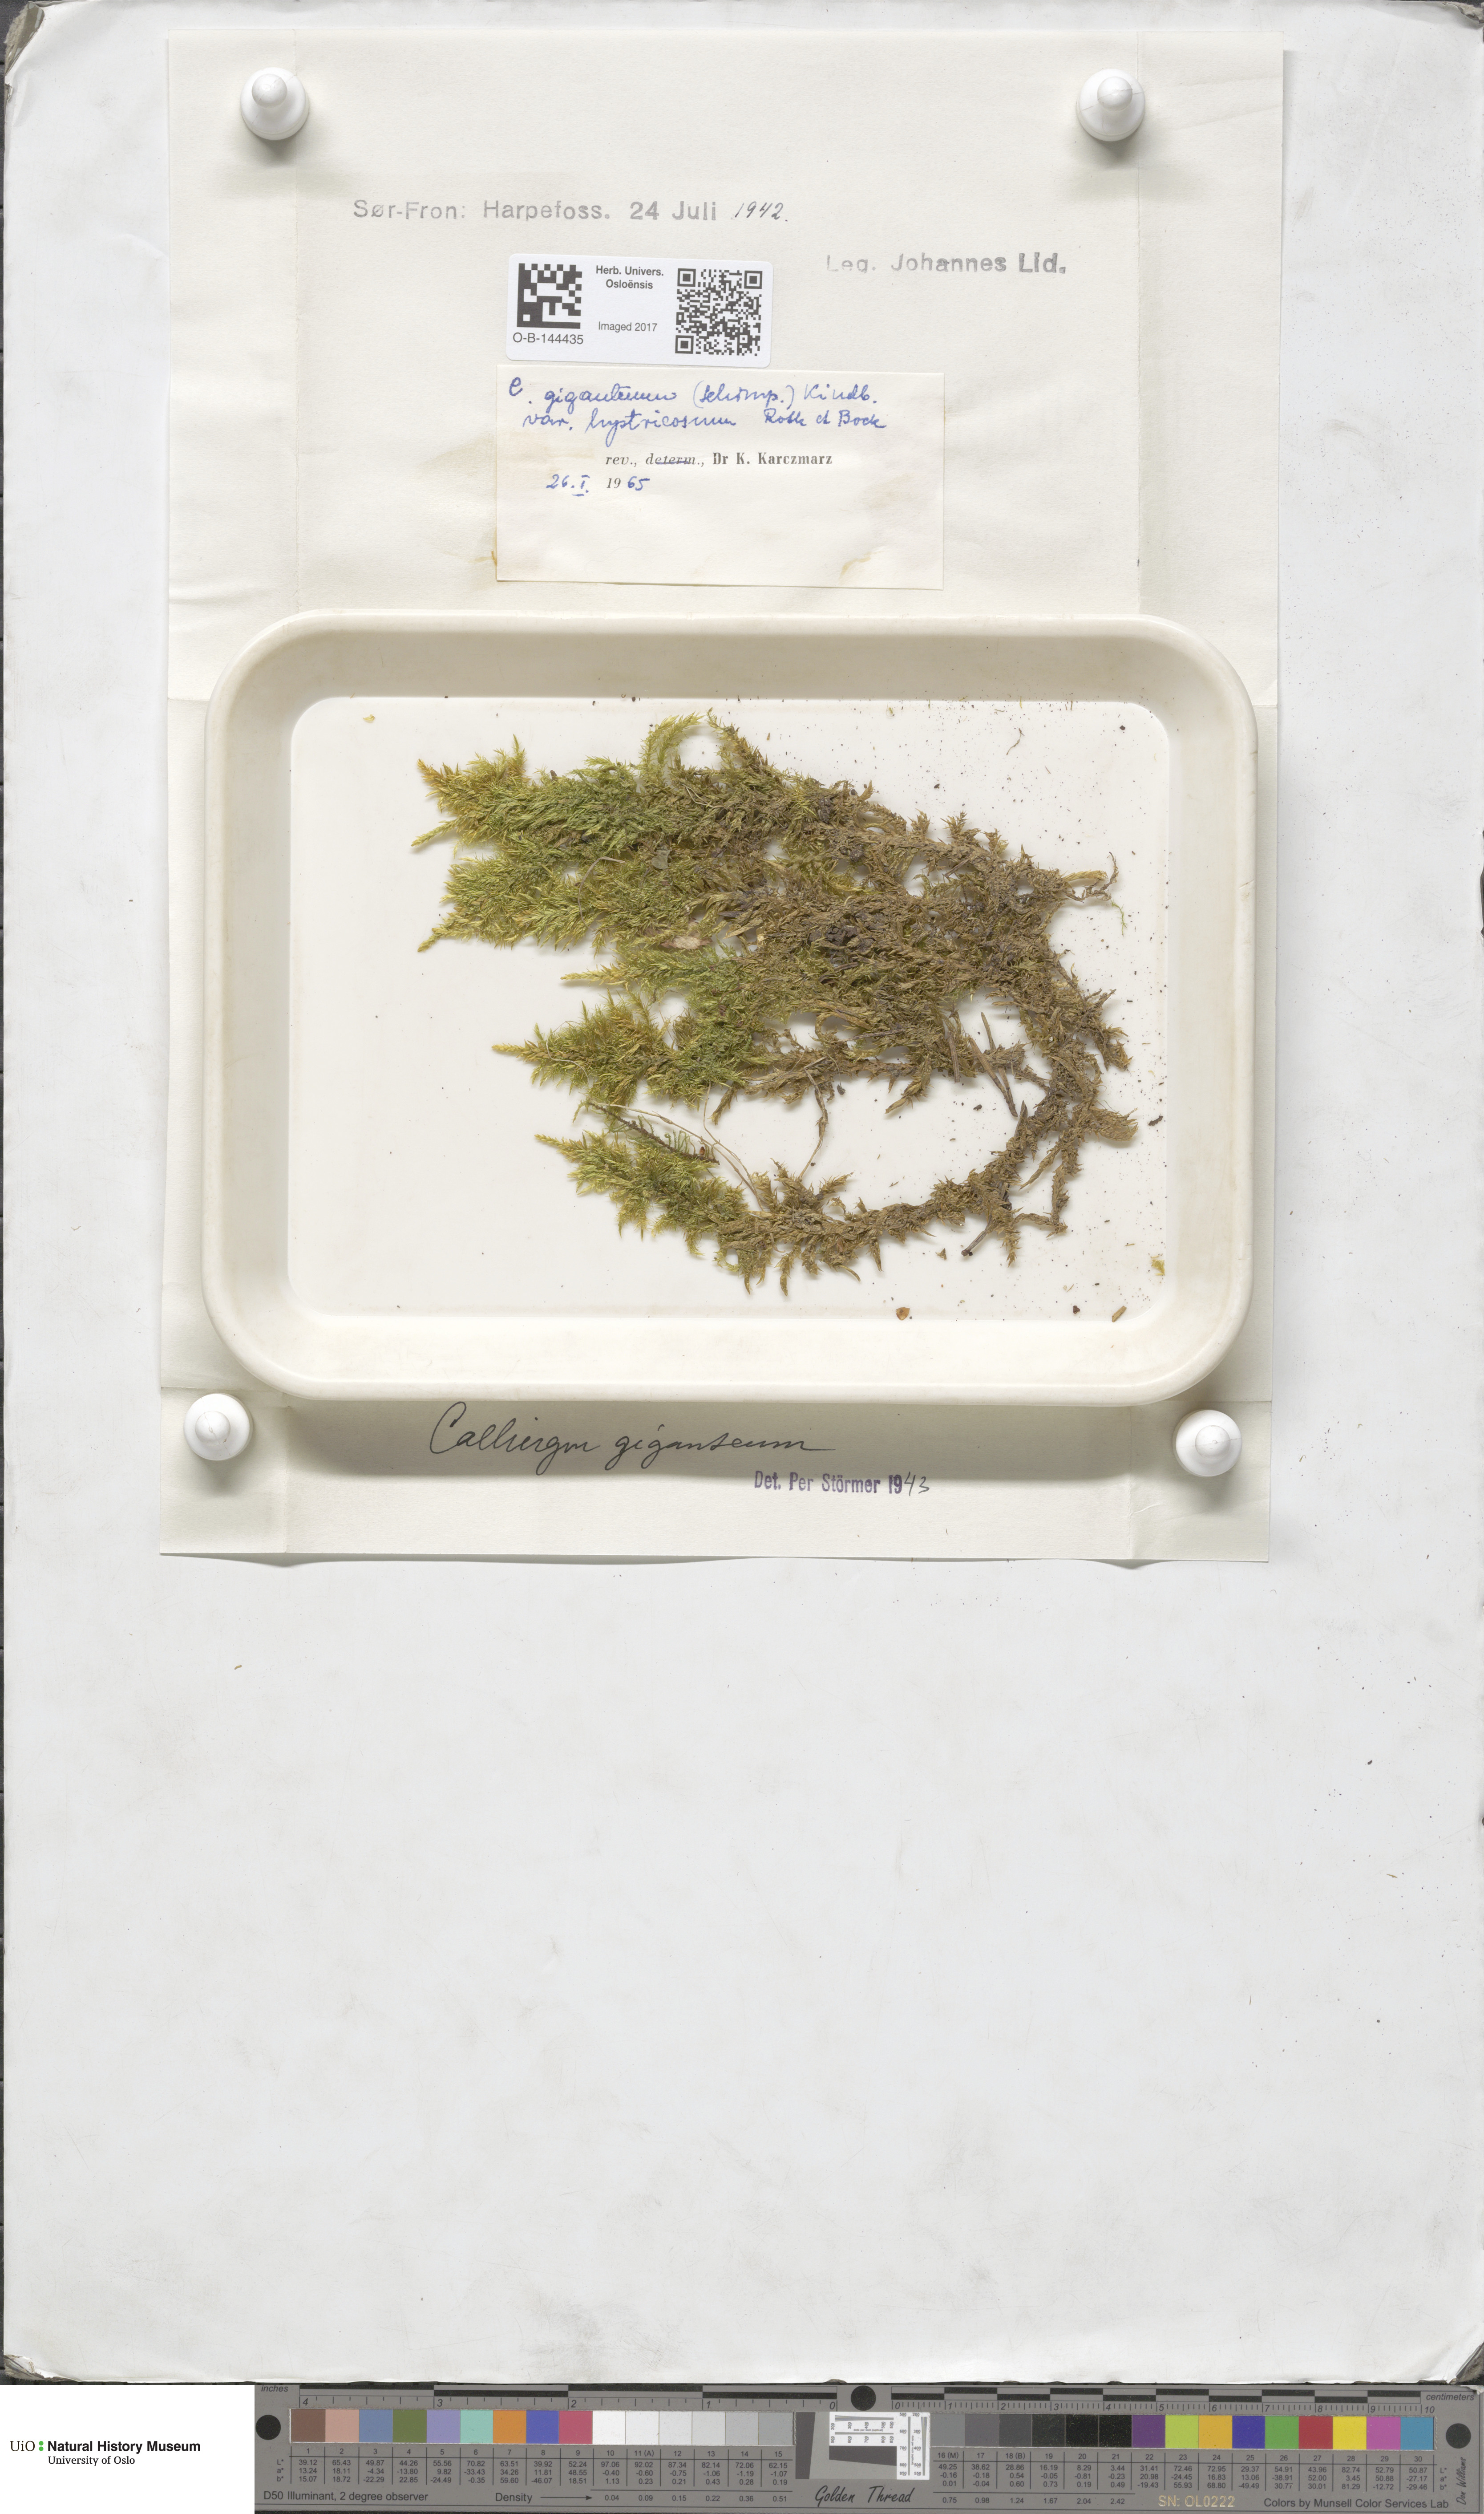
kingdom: Plantae
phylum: Bryophyta
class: Bryopsida
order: Hypnales
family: Calliergonaceae
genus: Calliergon
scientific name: Calliergon giganteum
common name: Giant spear moss
